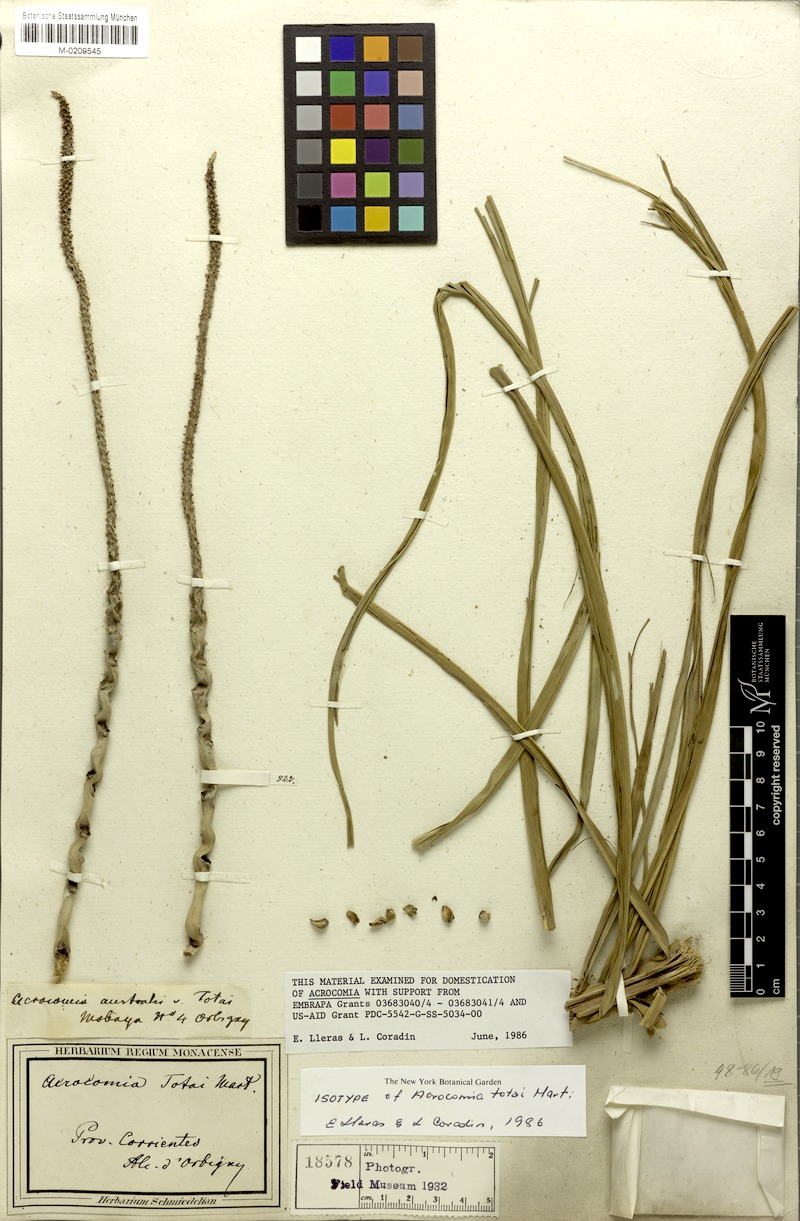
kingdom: Plantae
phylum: Tracheophyta
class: Liliopsida
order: Arecales
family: Arecaceae
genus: Acrocomia
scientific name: Acrocomia totai
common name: Grugru palm
